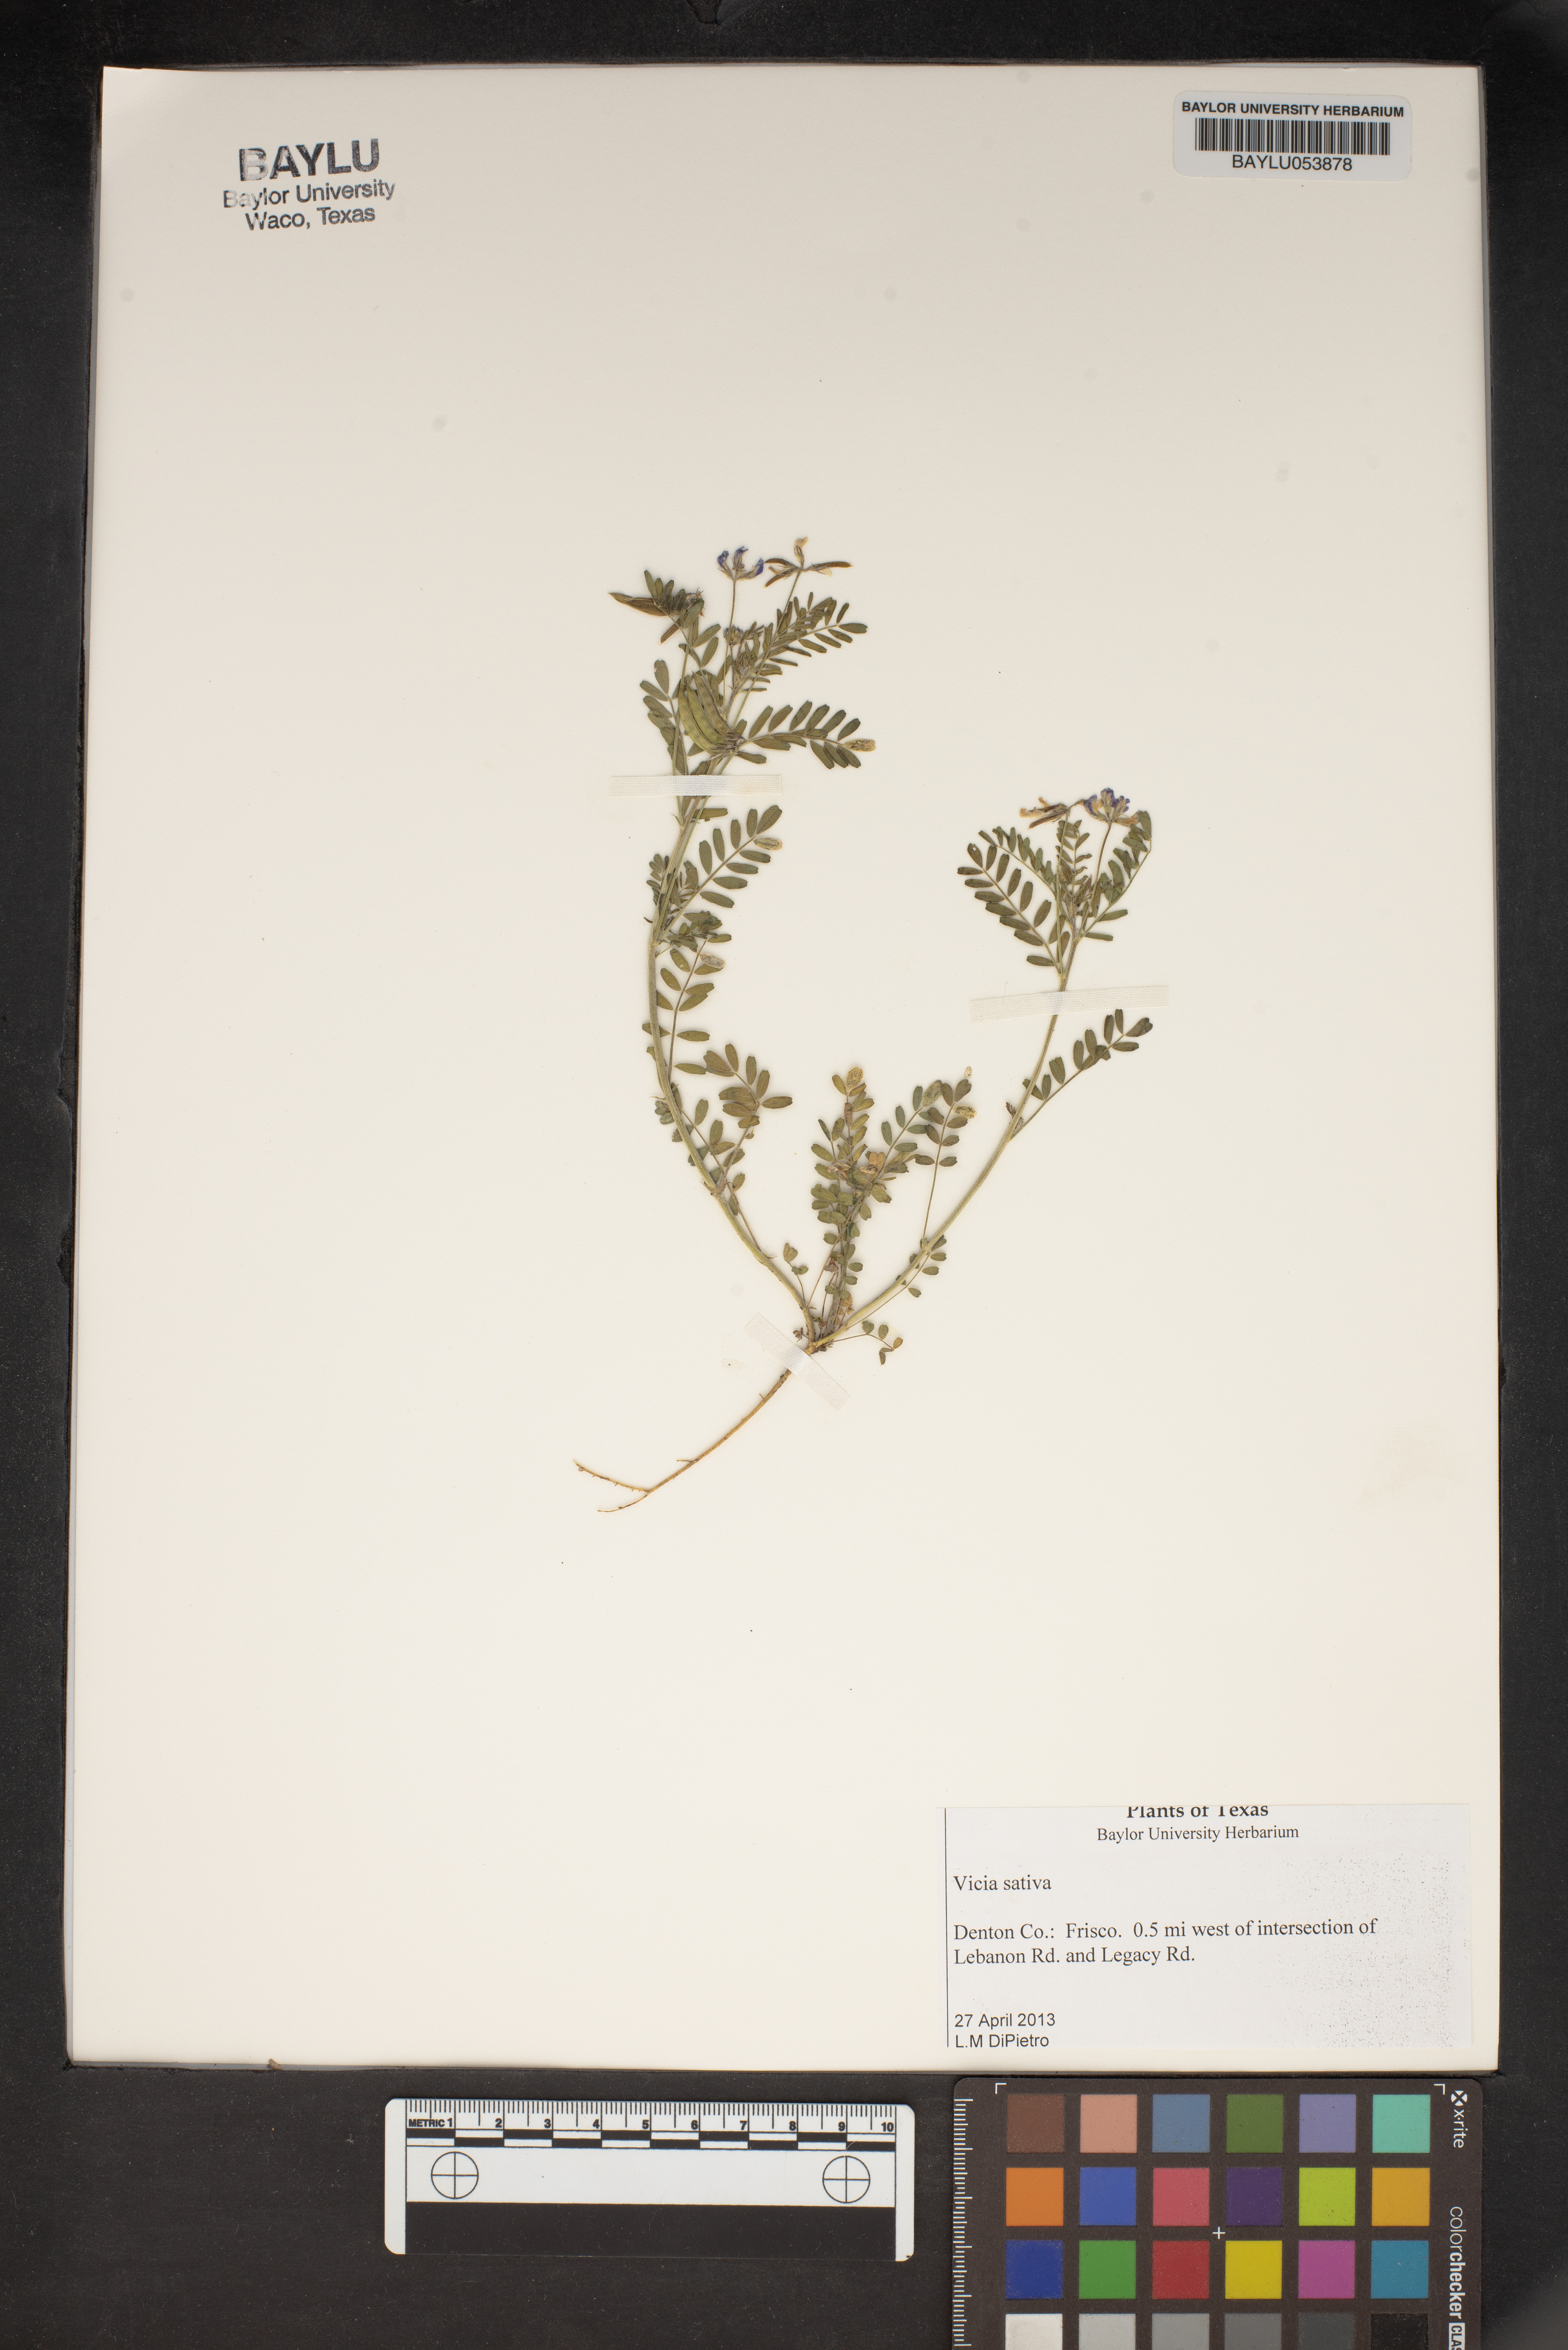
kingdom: Plantae
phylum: Tracheophyta
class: Magnoliopsida
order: Fabales
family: Fabaceae
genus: Vicia
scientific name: Vicia sativa
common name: Garden vetch
